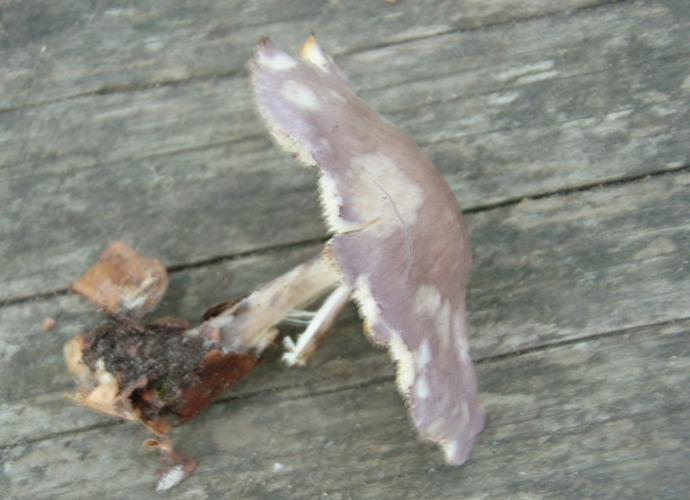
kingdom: Fungi
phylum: Basidiomycota
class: Agaricomycetes
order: Agaricales
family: Lyophyllaceae
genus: Calocybe
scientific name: Calocybe ionides
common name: violblå fagerhat
